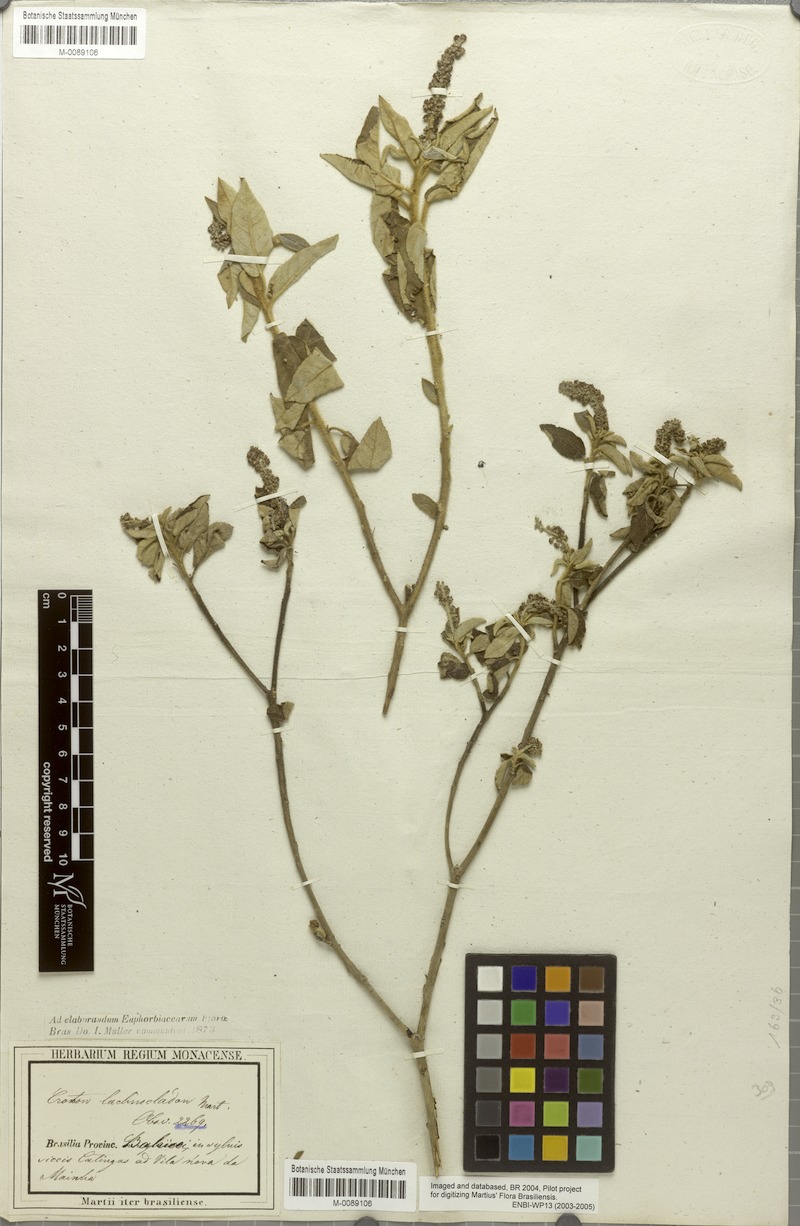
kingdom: Plantae
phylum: Tracheophyta
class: Magnoliopsida
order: Malpighiales
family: Euphorbiaceae
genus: Croton
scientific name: Croton lachnocladus
